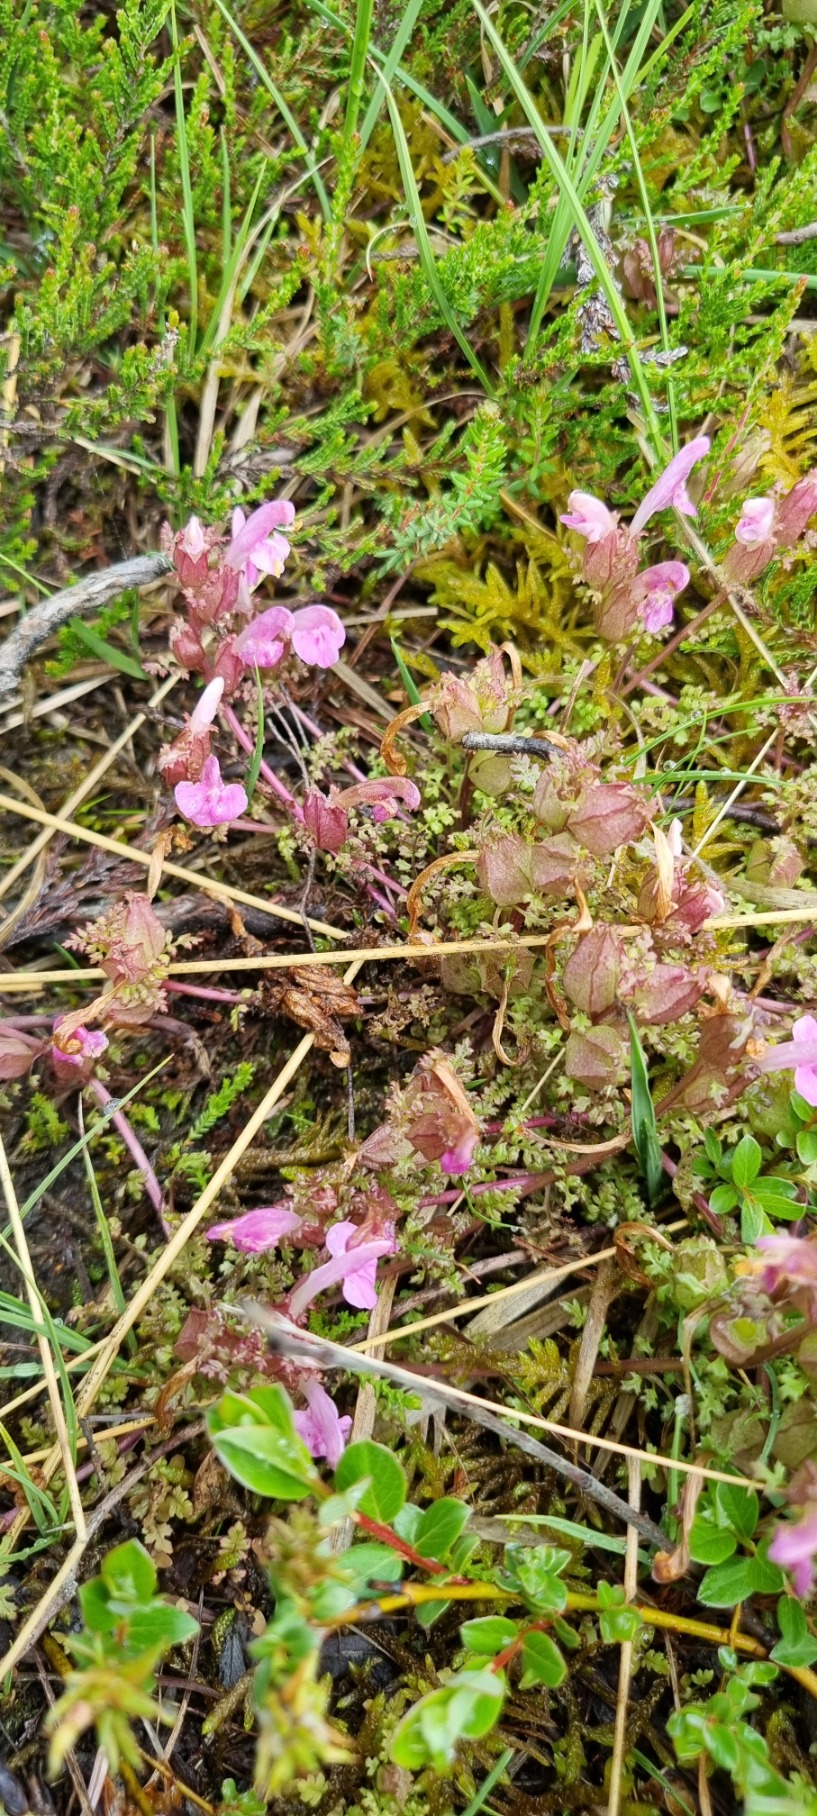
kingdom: Plantae
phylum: Tracheophyta
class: Magnoliopsida
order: Lamiales
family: Orobanchaceae
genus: Pedicularis
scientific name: Pedicularis sylvatica
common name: Mose-troldurt
